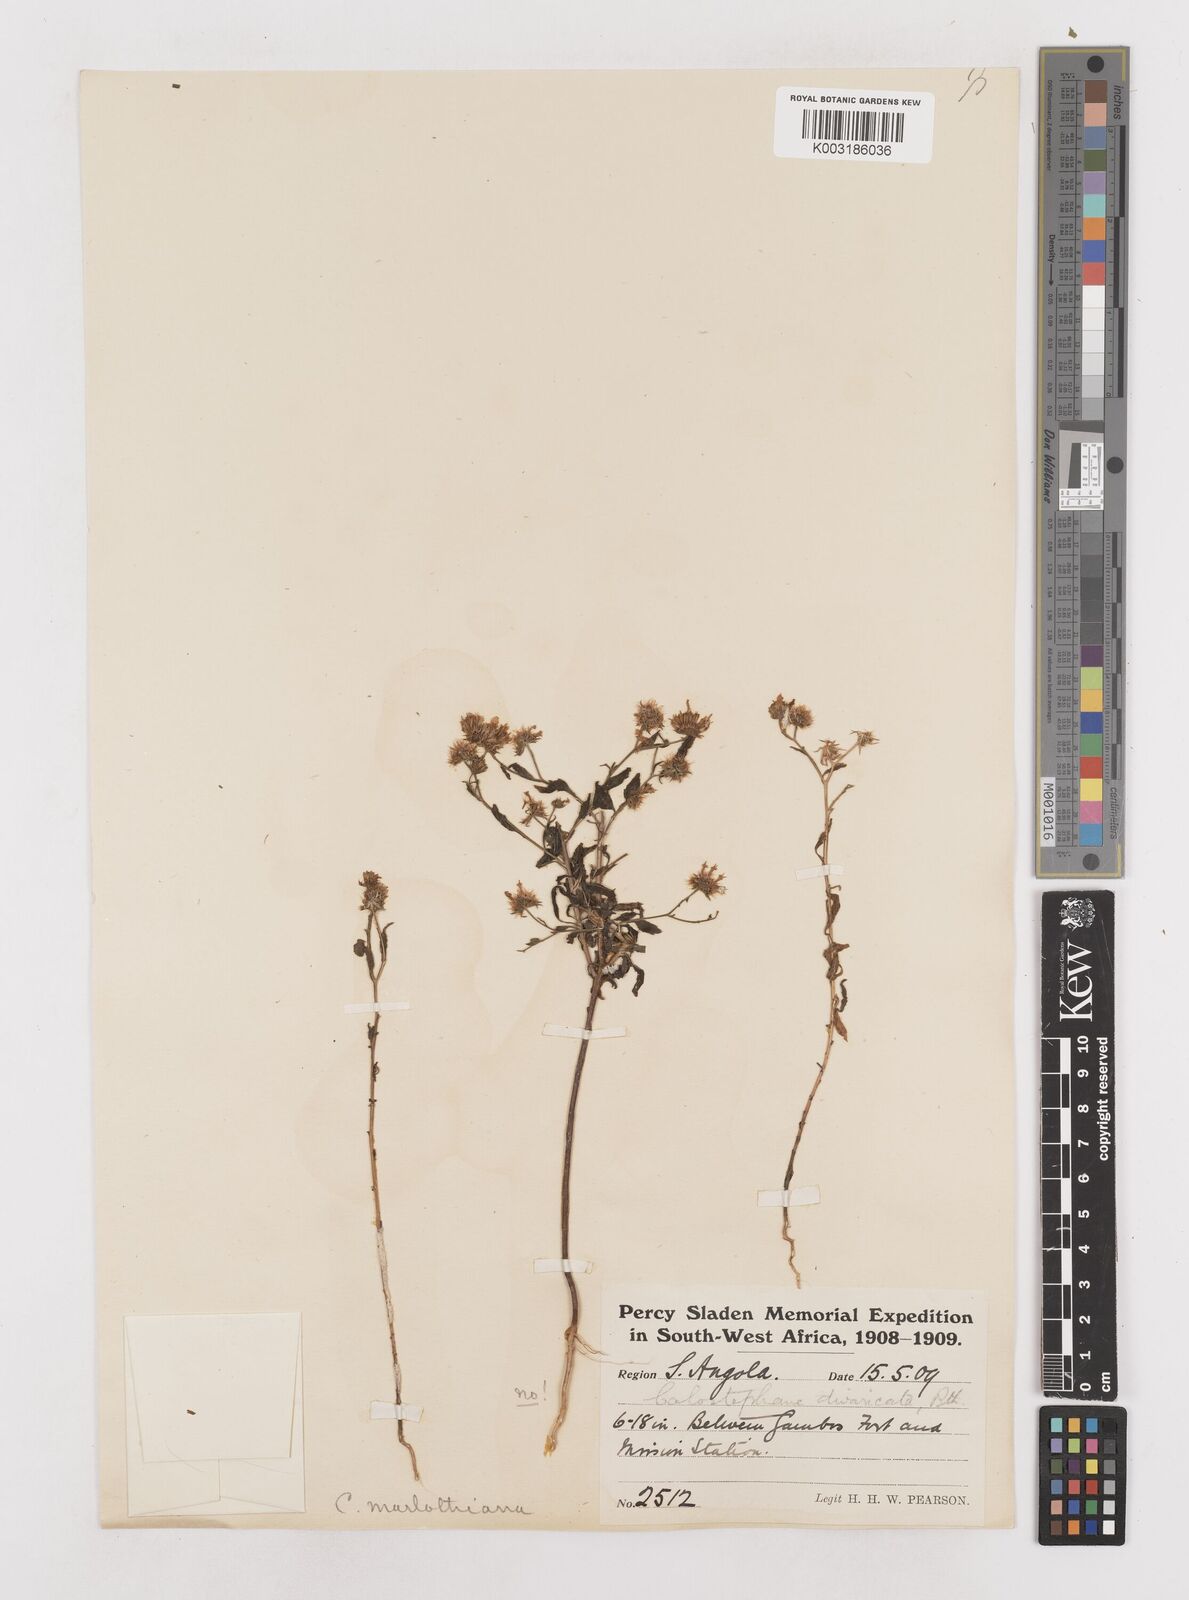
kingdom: Plantae
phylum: Tracheophyta
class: Magnoliopsida
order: Asterales
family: Asteraceae
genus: Calostephane
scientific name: Calostephane divaricata
